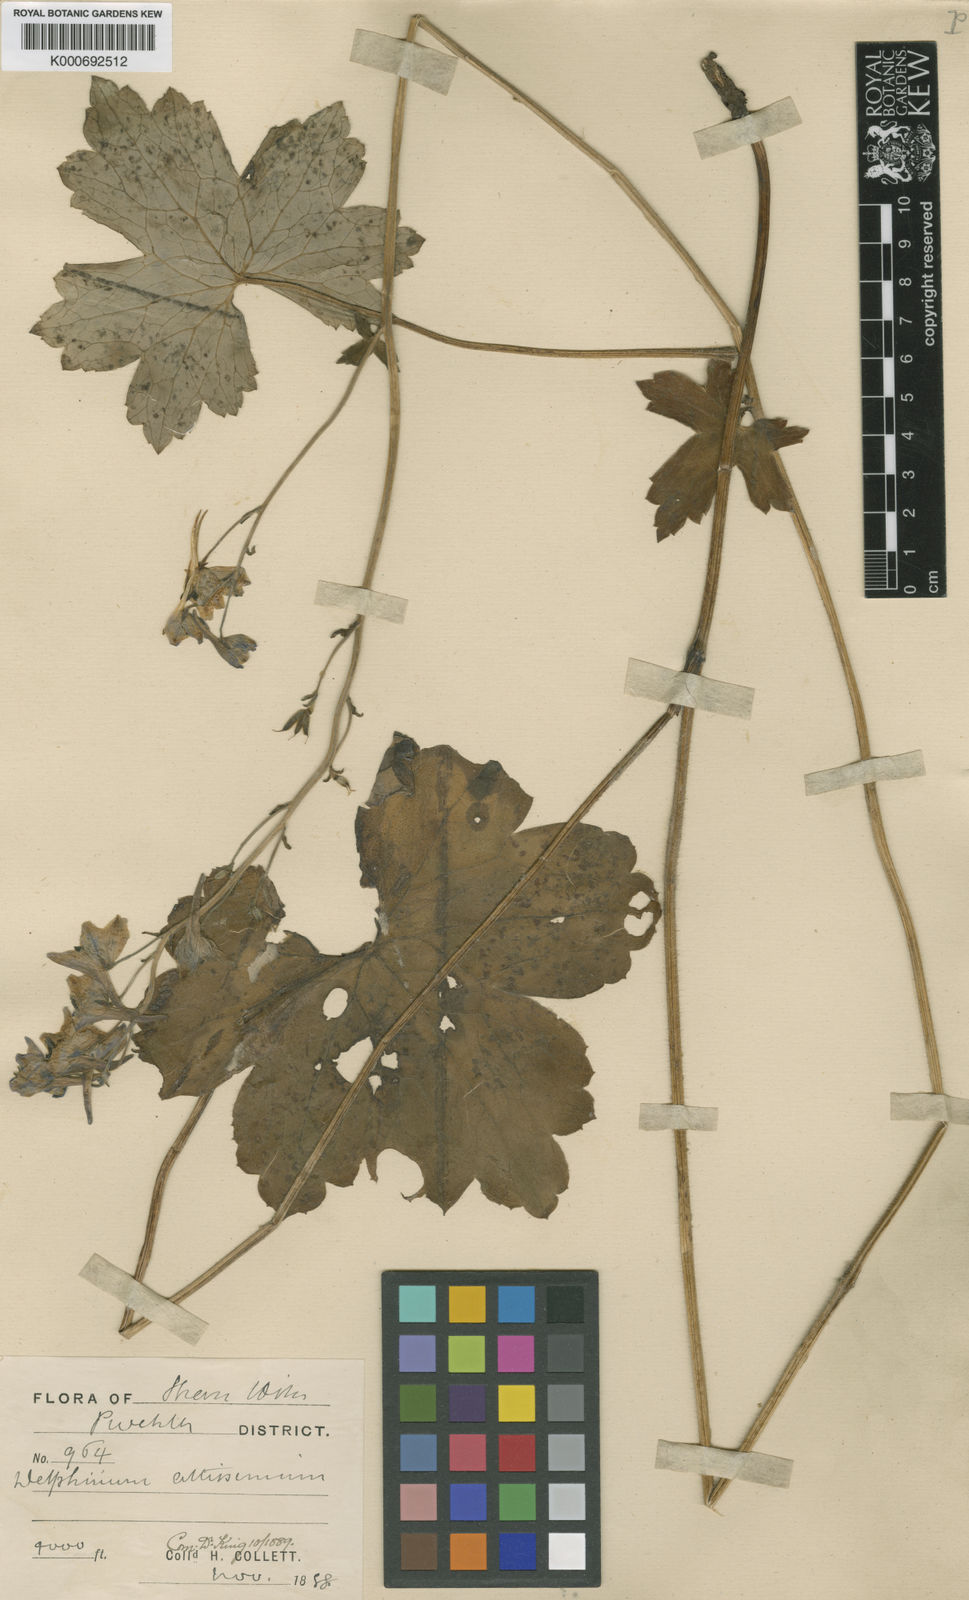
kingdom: Plantae
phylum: Tracheophyta
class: Magnoliopsida
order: Ranunculales
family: Ranunculaceae
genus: Delphinium
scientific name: Delphinium
